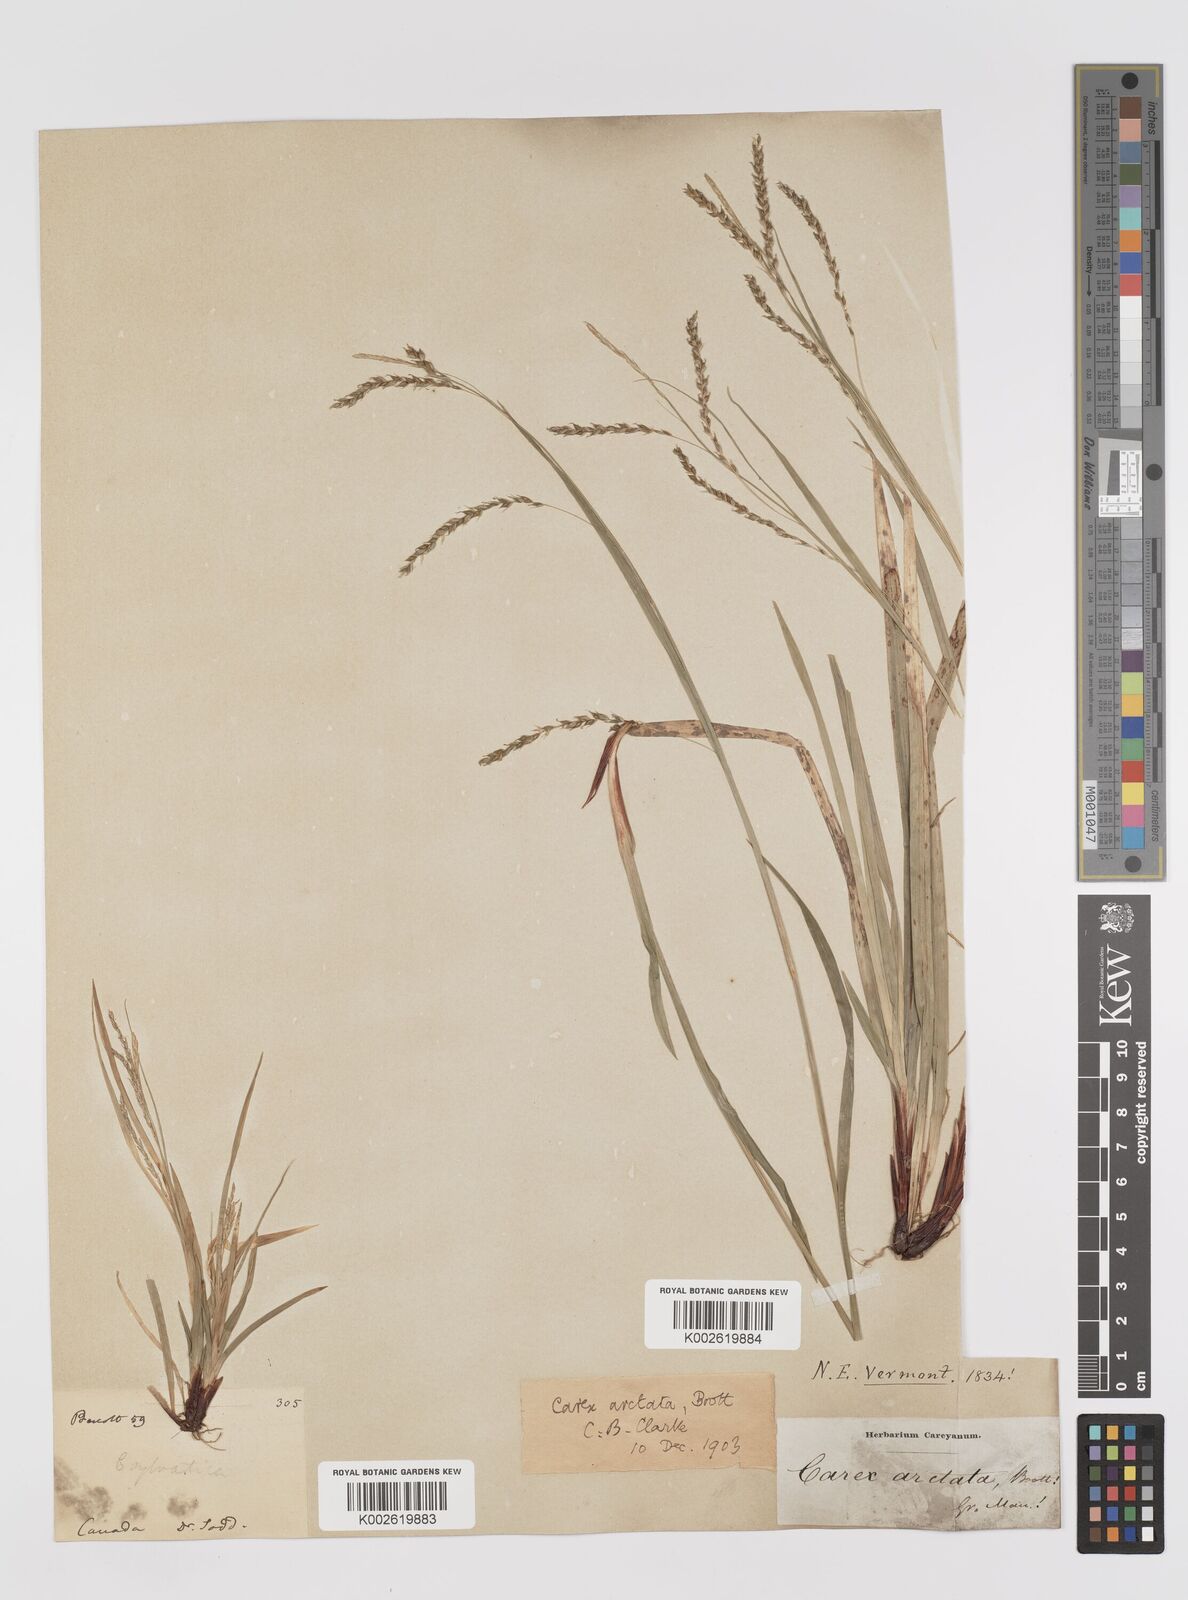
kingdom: Plantae
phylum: Tracheophyta
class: Liliopsida
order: Poales
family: Cyperaceae
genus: Carex
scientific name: Carex arctata
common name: Black sedge
